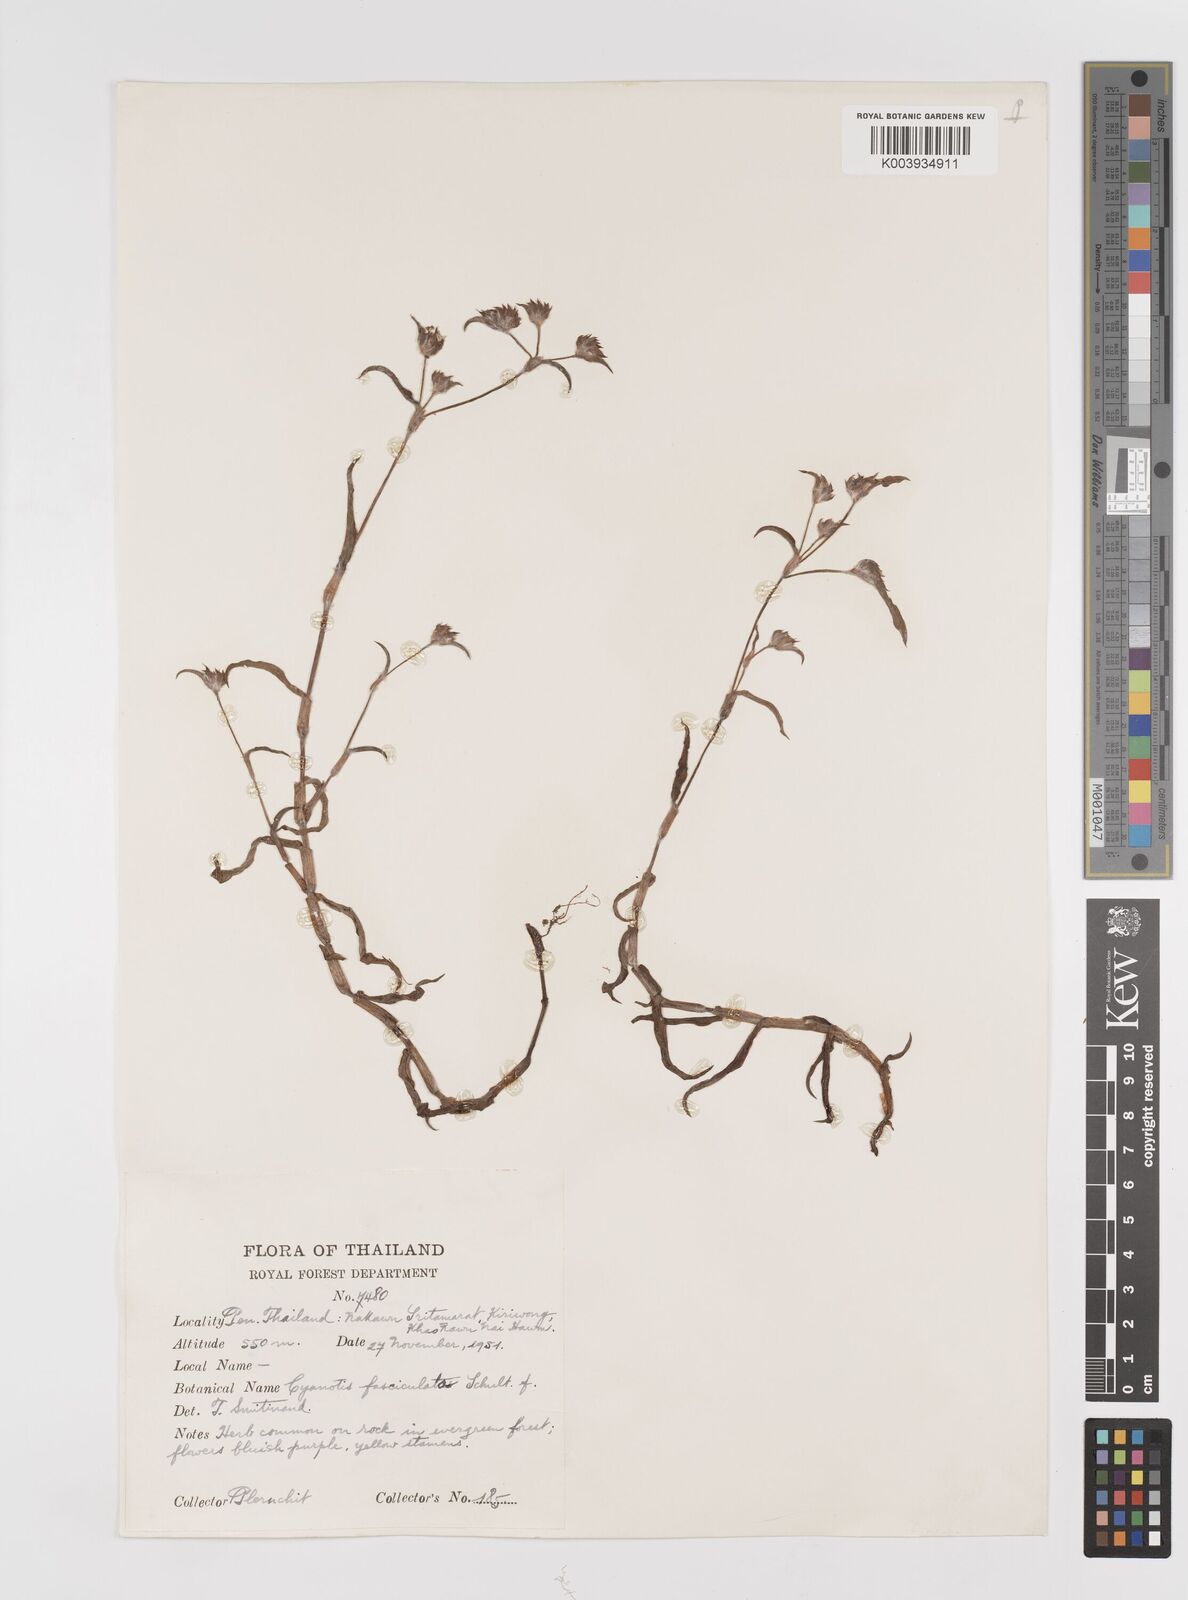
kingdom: Plantae
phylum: Tracheophyta
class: Liliopsida
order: Commelinales
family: Commelinaceae
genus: Cyanotis
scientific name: Cyanotis fasciculata
